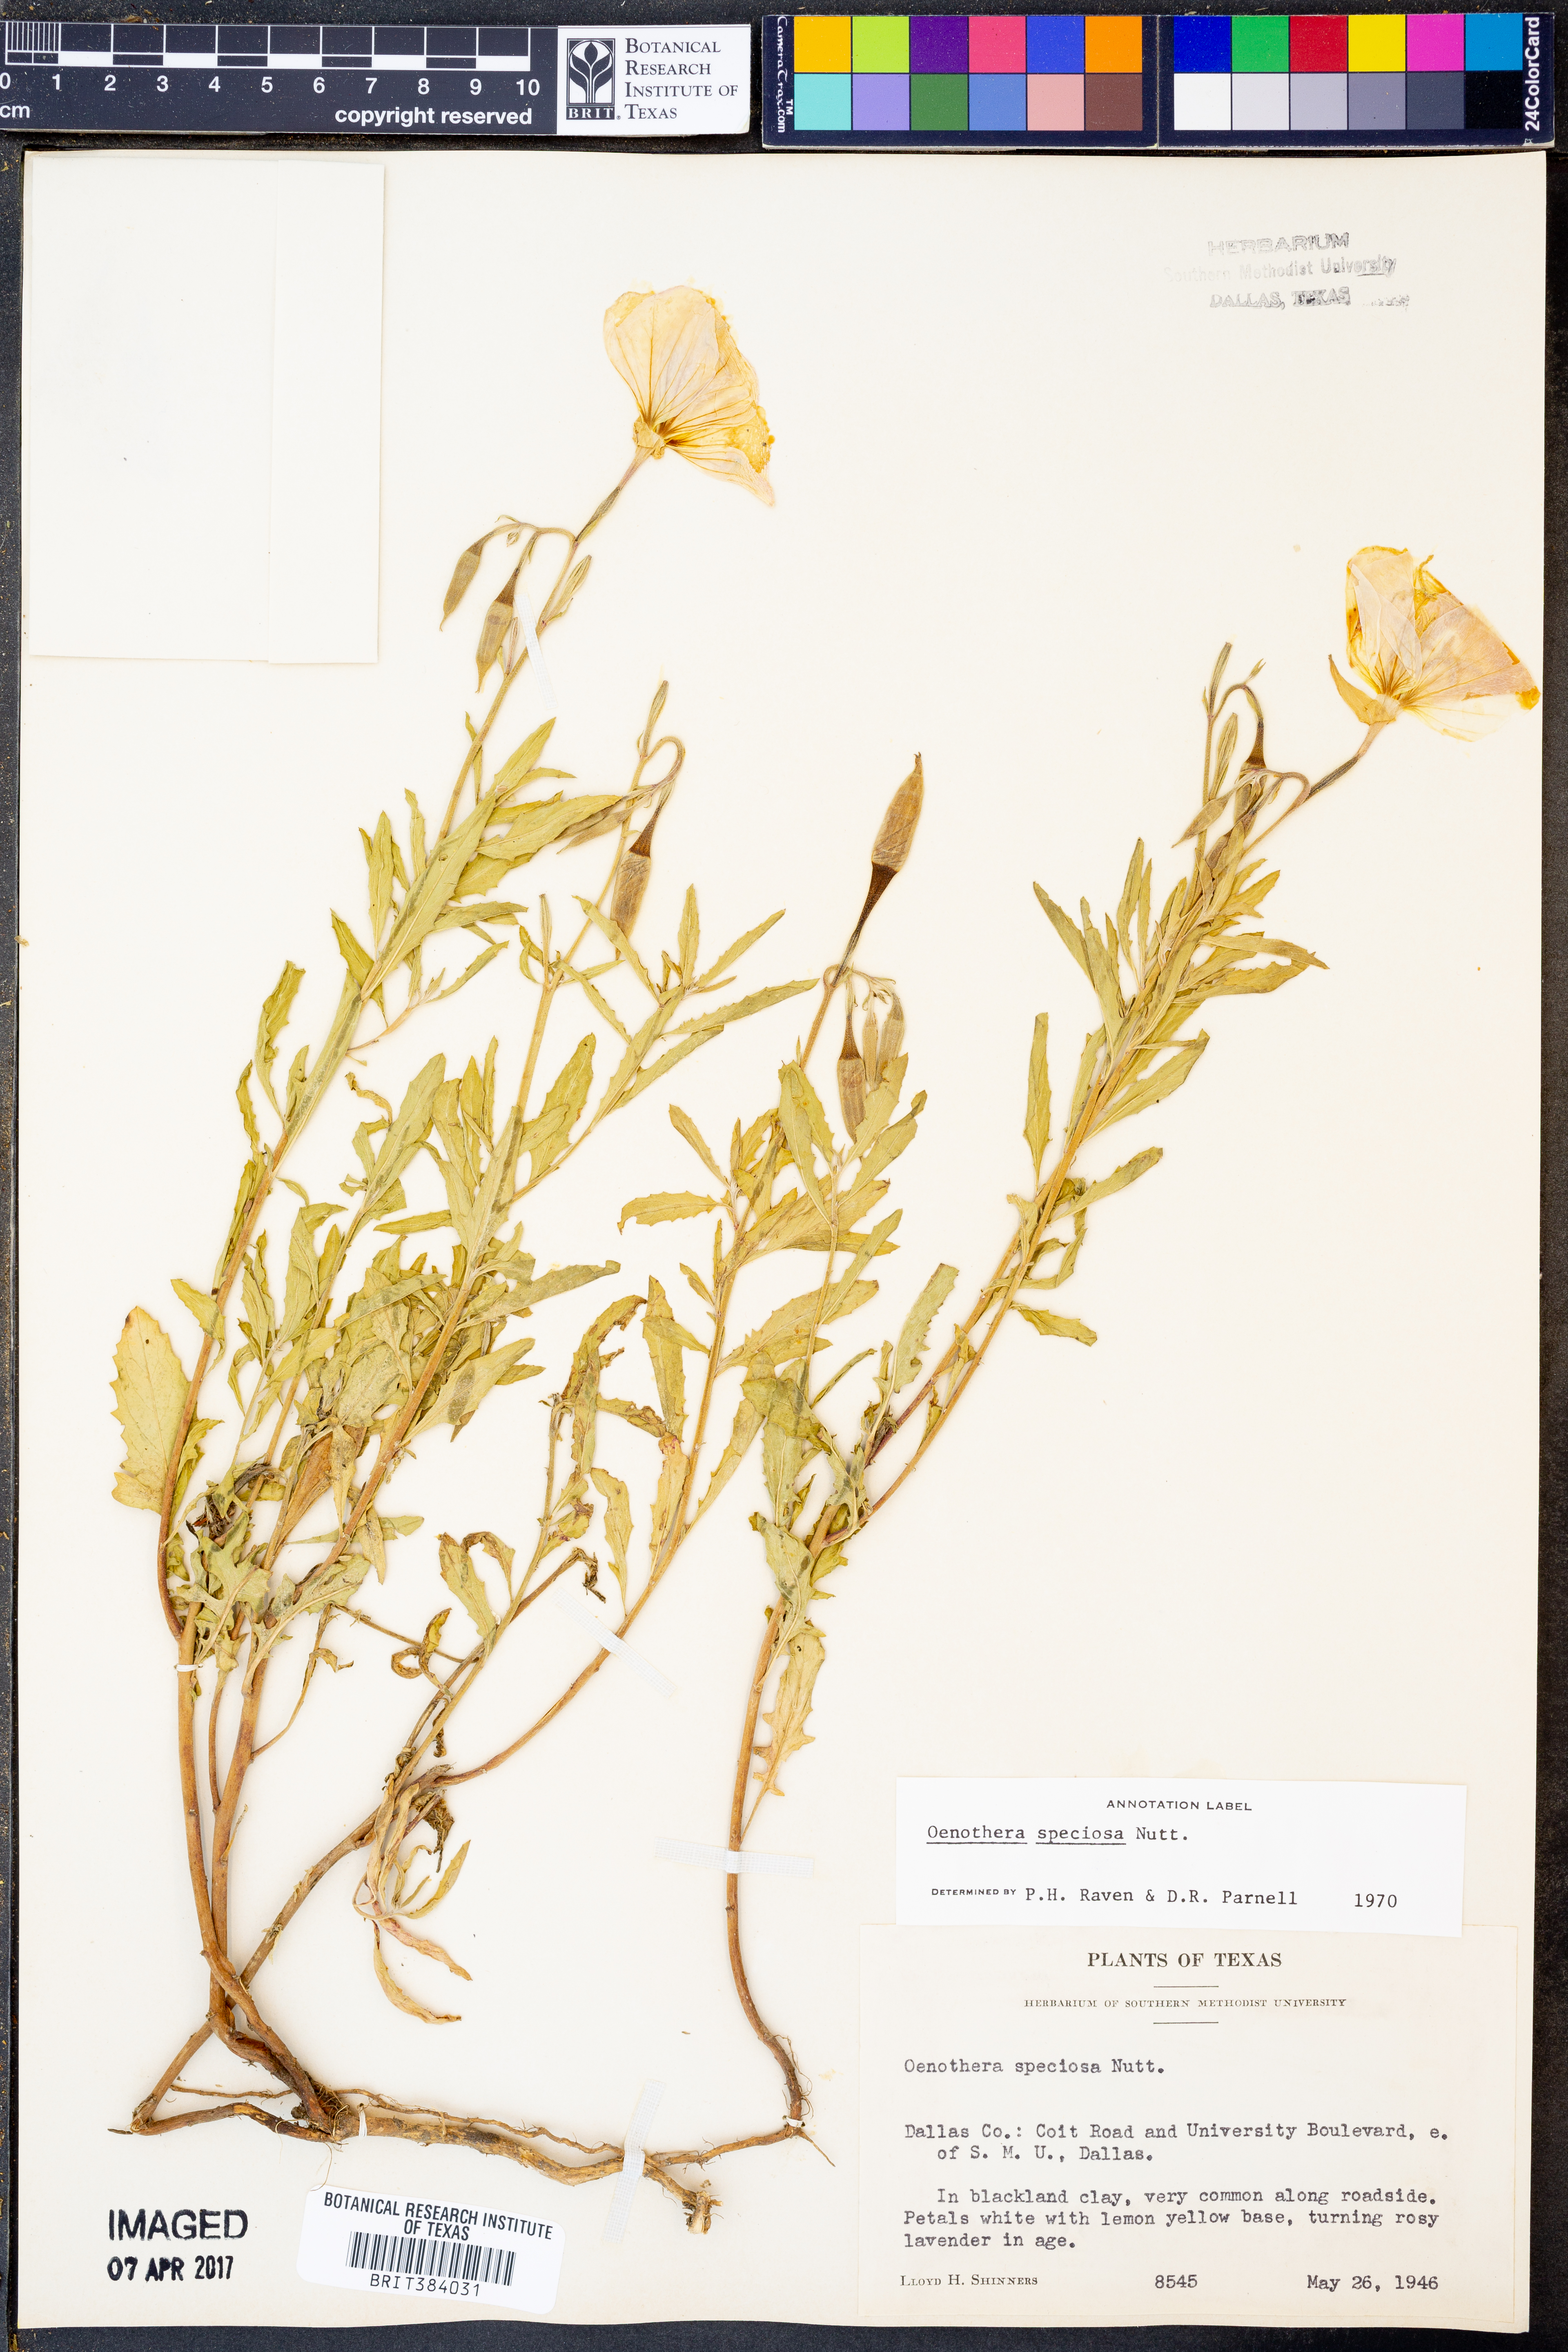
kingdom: Plantae
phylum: Tracheophyta
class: Magnoliopsida
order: Myrtales
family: Onagraceae
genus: Oenothera
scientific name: Oenothera speciosa
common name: White evening-primrose
